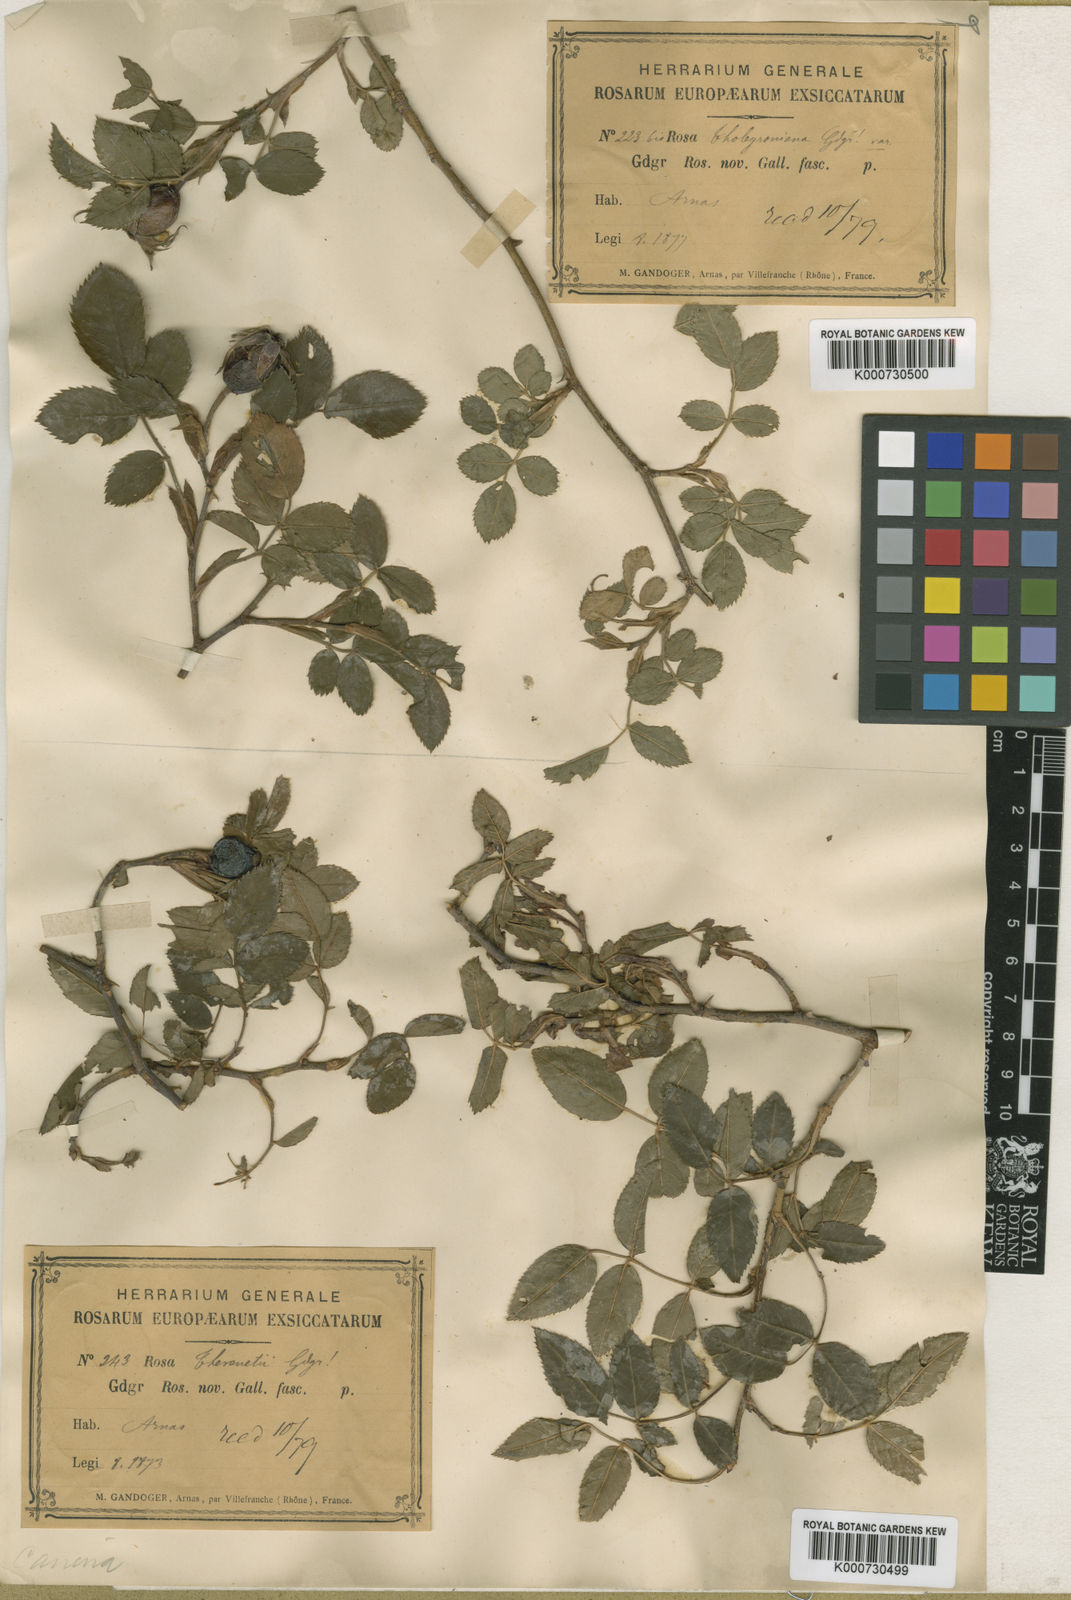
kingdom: Plantae
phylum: Tracheophyta
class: Magnoliopsida
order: Rosales
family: Rosaceae
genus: Rosa
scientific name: Rosa canina
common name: Dog rose
